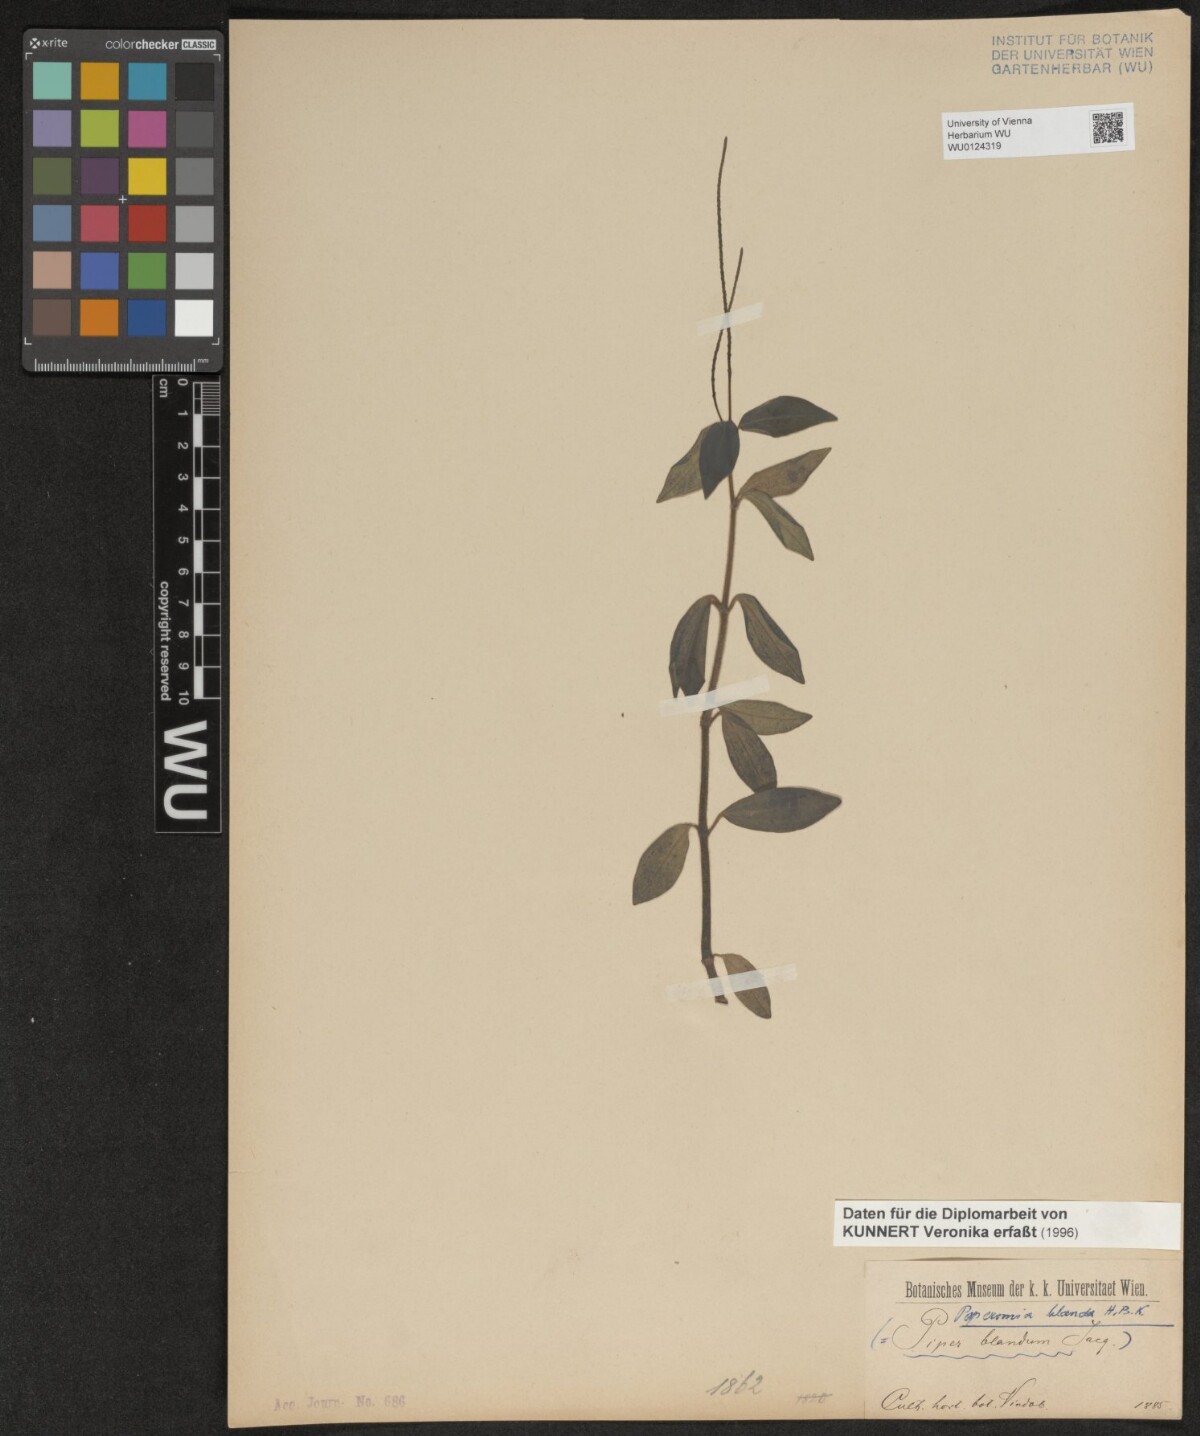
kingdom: Plantae
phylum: Tracheophyta
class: Magnoliopsida
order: Piperales
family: Piperaceae
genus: Peperomia
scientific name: Peperomia blanda
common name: Arid-land peperomia
